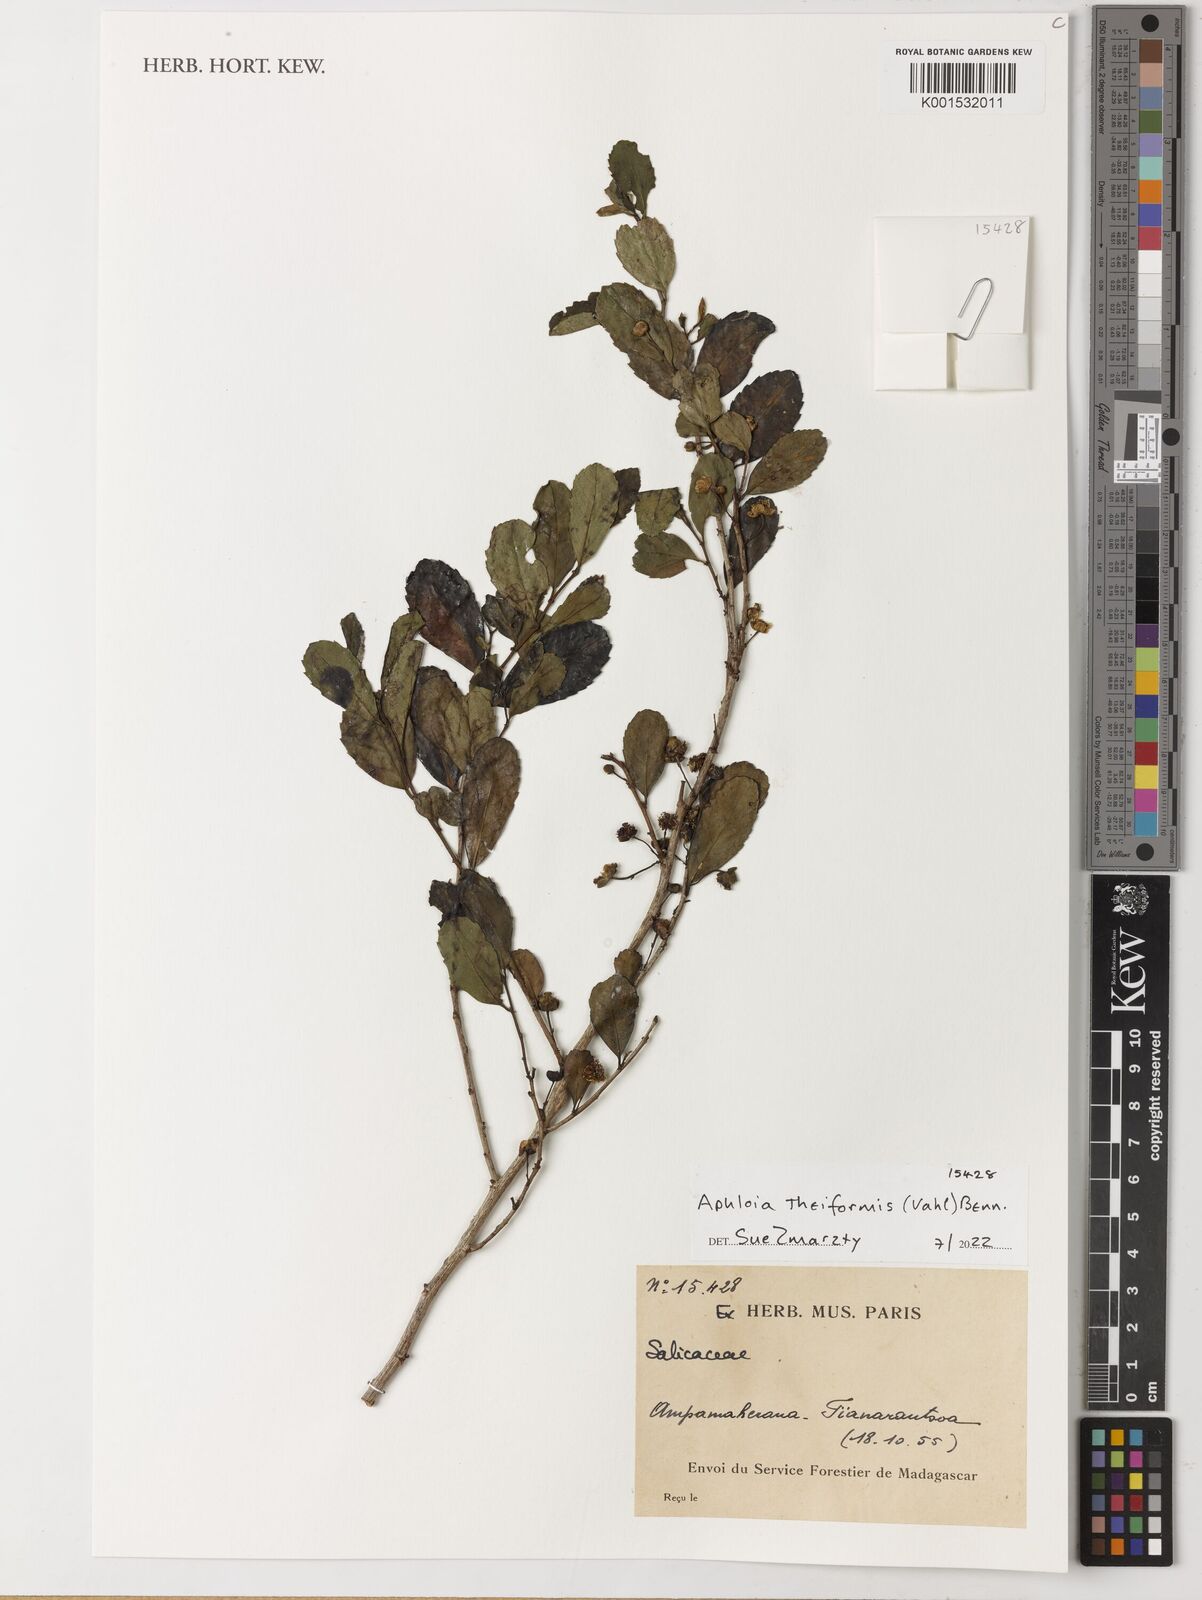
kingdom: Plantae
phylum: Tracheophyta
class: Magnoliopsida
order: Malpighiales
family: Salicaceae
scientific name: Salicaceae
